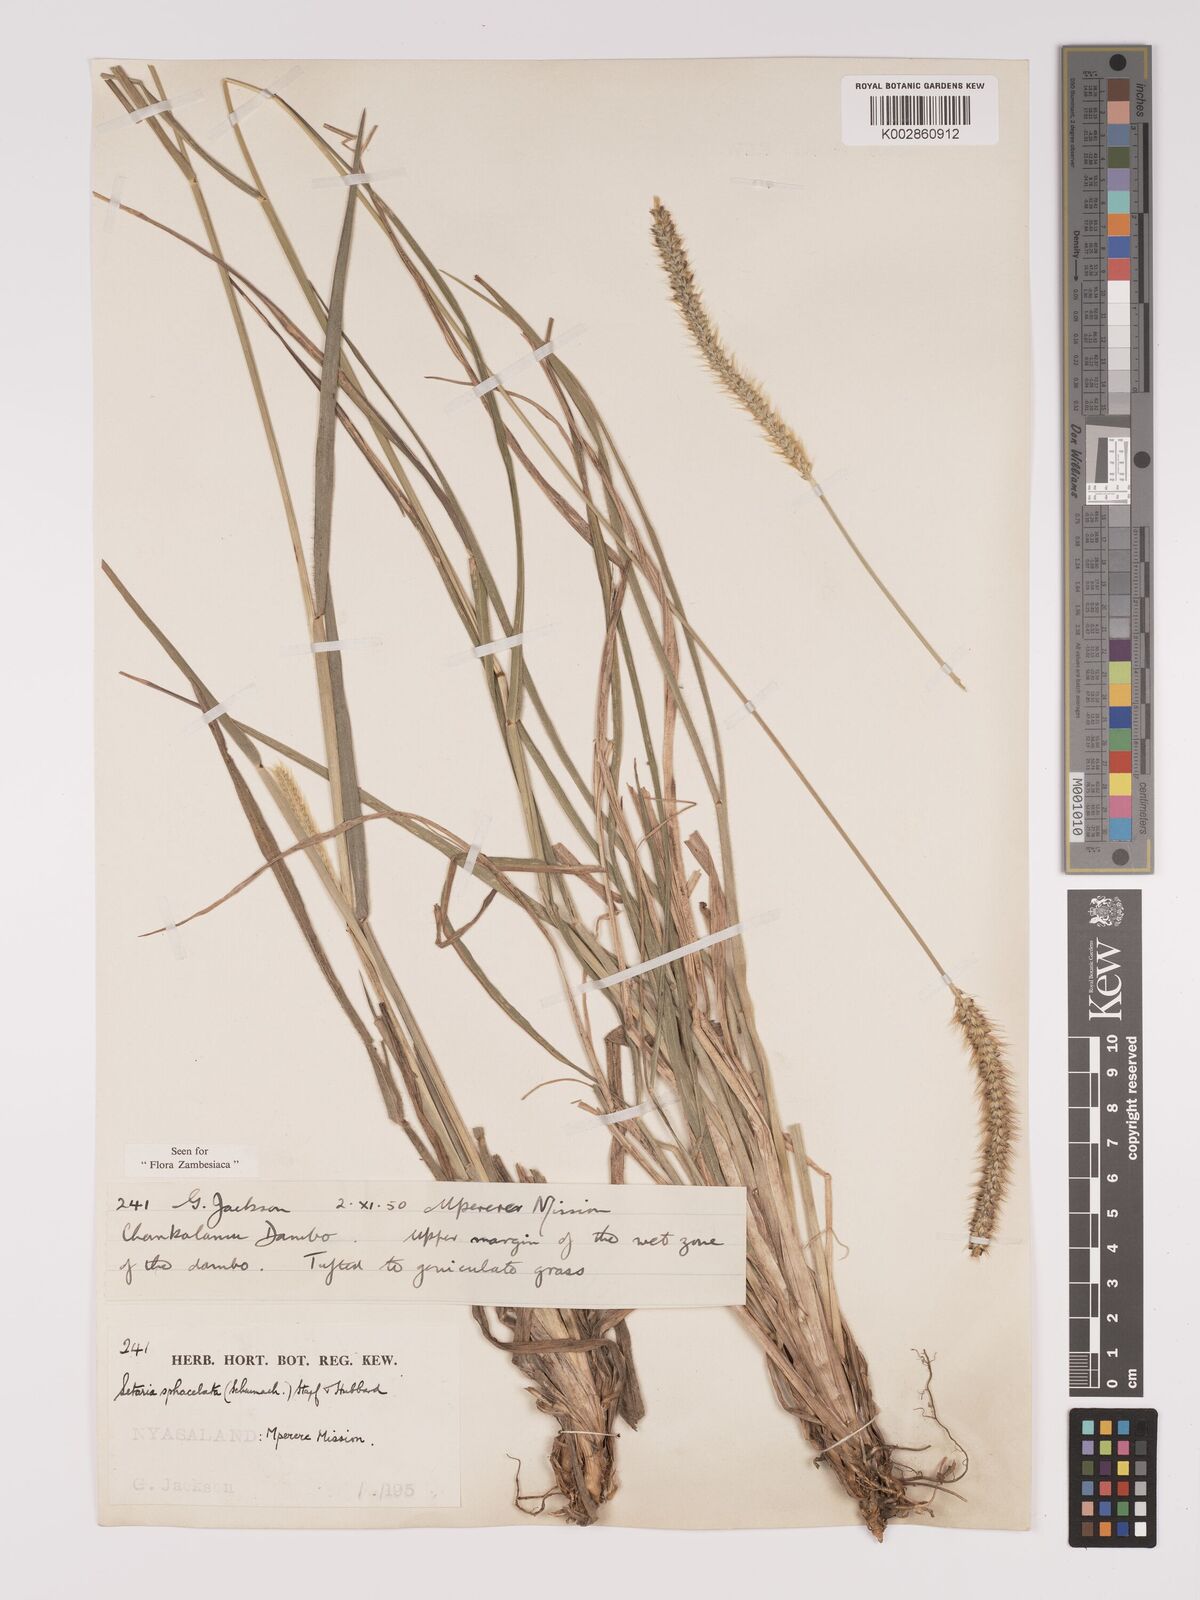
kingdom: Plantae
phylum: Tracheophyta
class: Liliopsida
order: Poales
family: Poaceae
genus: Setaria
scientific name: Setaria sphacelata
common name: African bristlegrass
